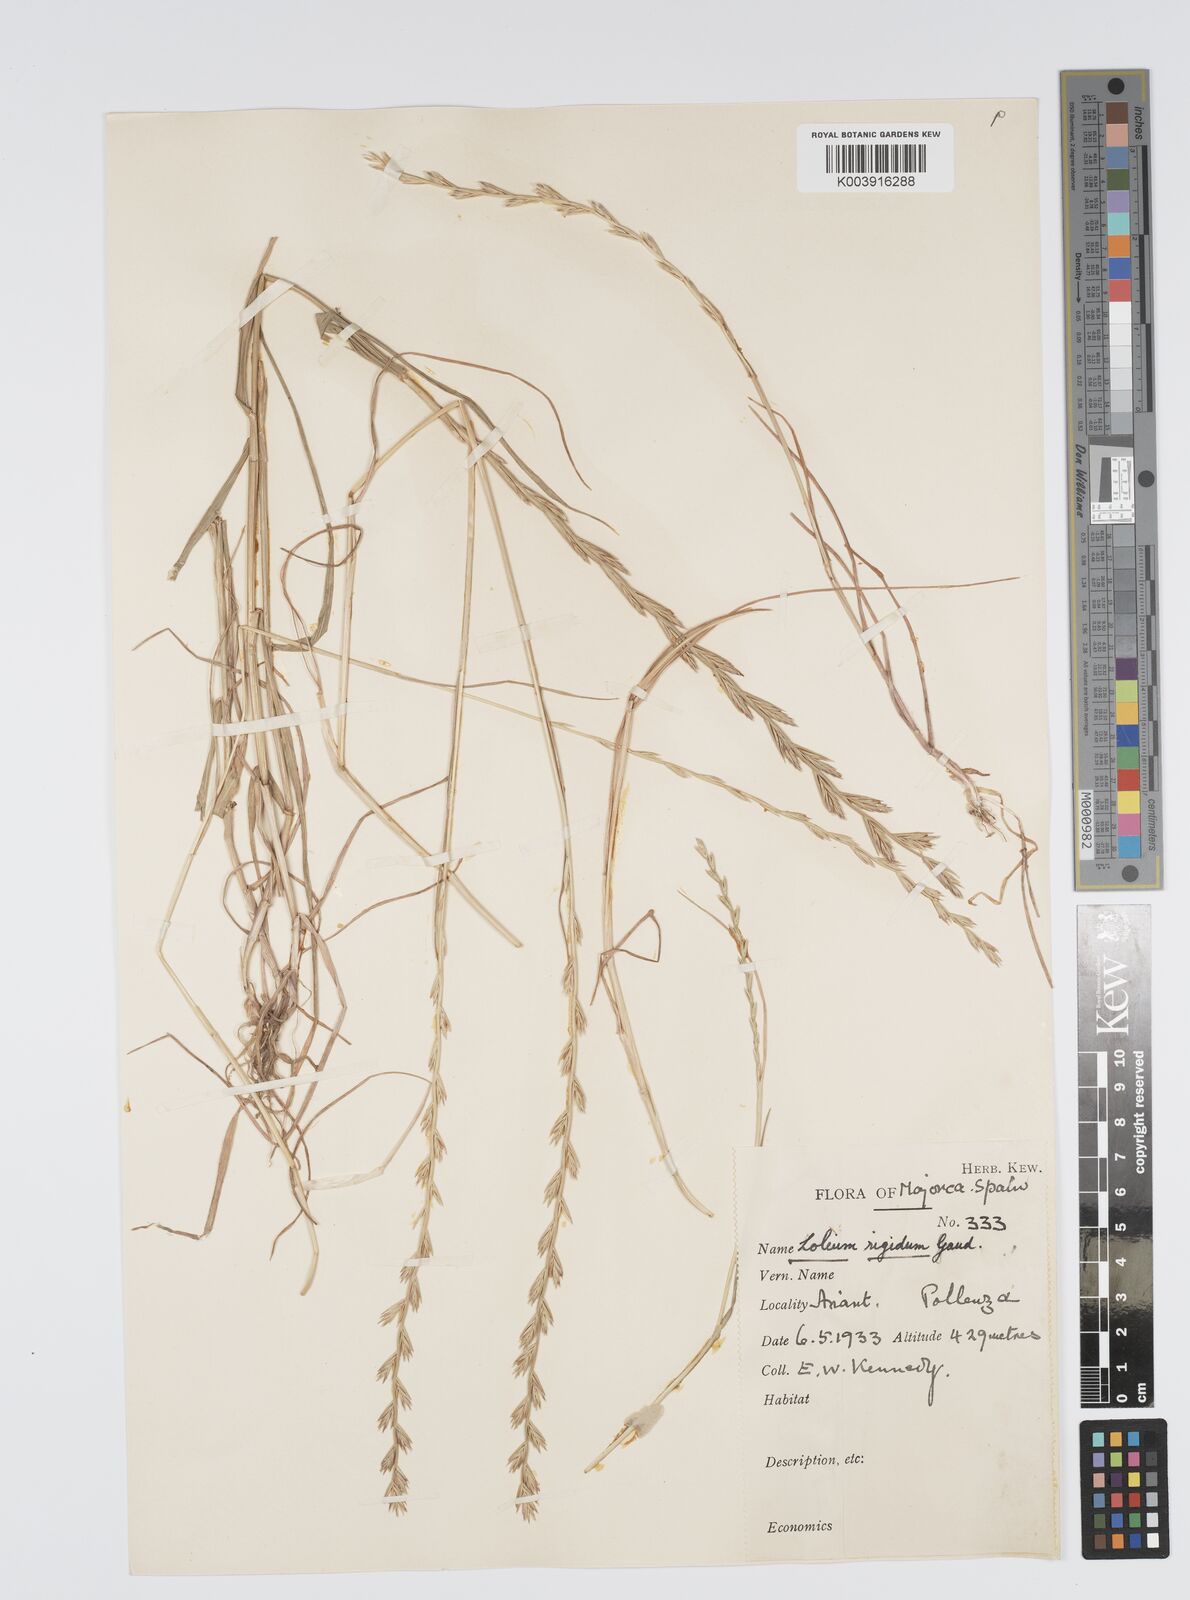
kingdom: Plantae
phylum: Tracheophyta
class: Liliopsida
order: Poales
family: Poaceae
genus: Lolium
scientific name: Lolium rigidum
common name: Wimmera ryegrass
